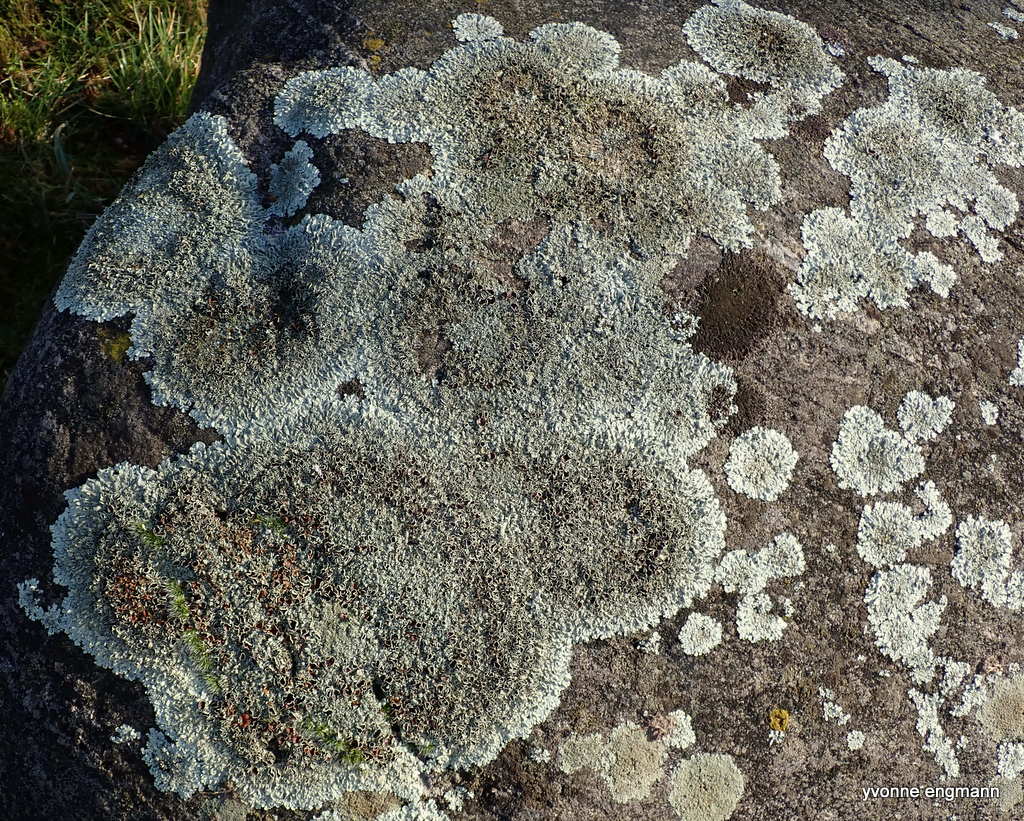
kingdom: Fungi
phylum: Ascomycota
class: Lecanoromycetes
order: Lecanorales
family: Parmeliaceae
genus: Xanthoparmelia
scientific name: Xanthoparmelia conspersa
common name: messing-skållav
